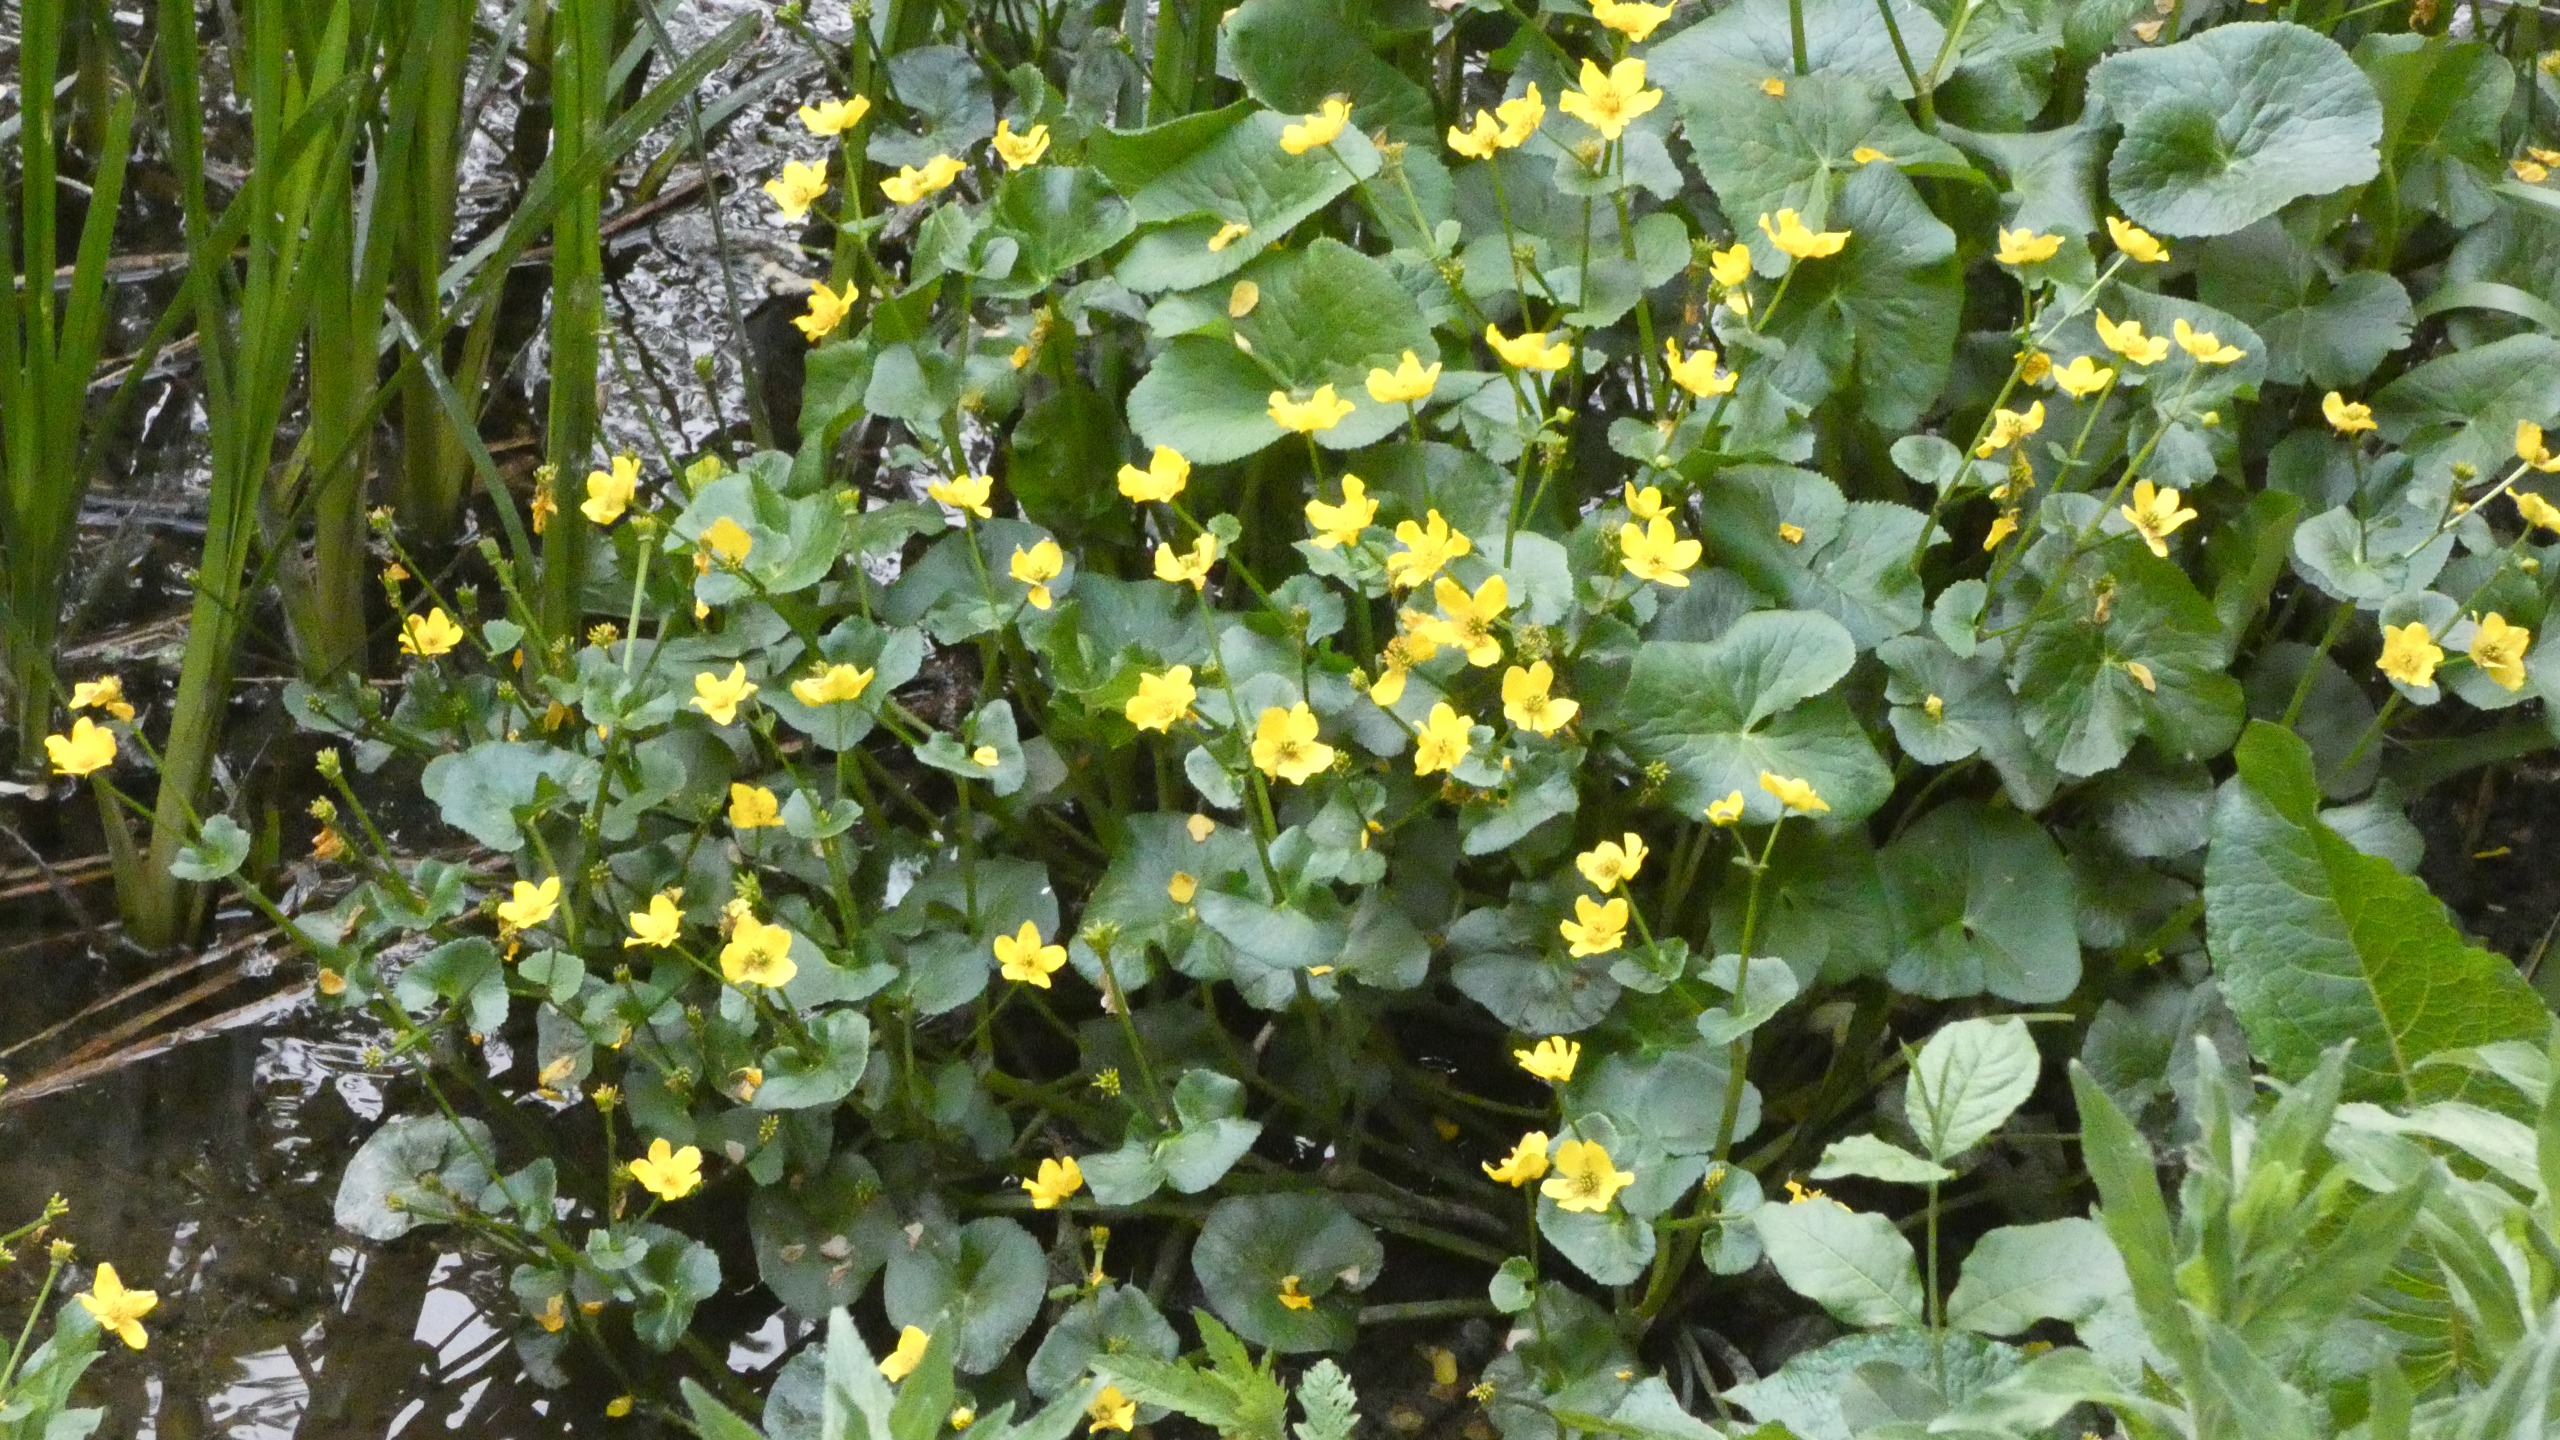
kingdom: Plantae
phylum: Tracheophyta
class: Magnoliopsida
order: Ranunculales
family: Ranunculaceae
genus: Caltha
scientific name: Caltha palustris
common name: Eng-kabbeleje
